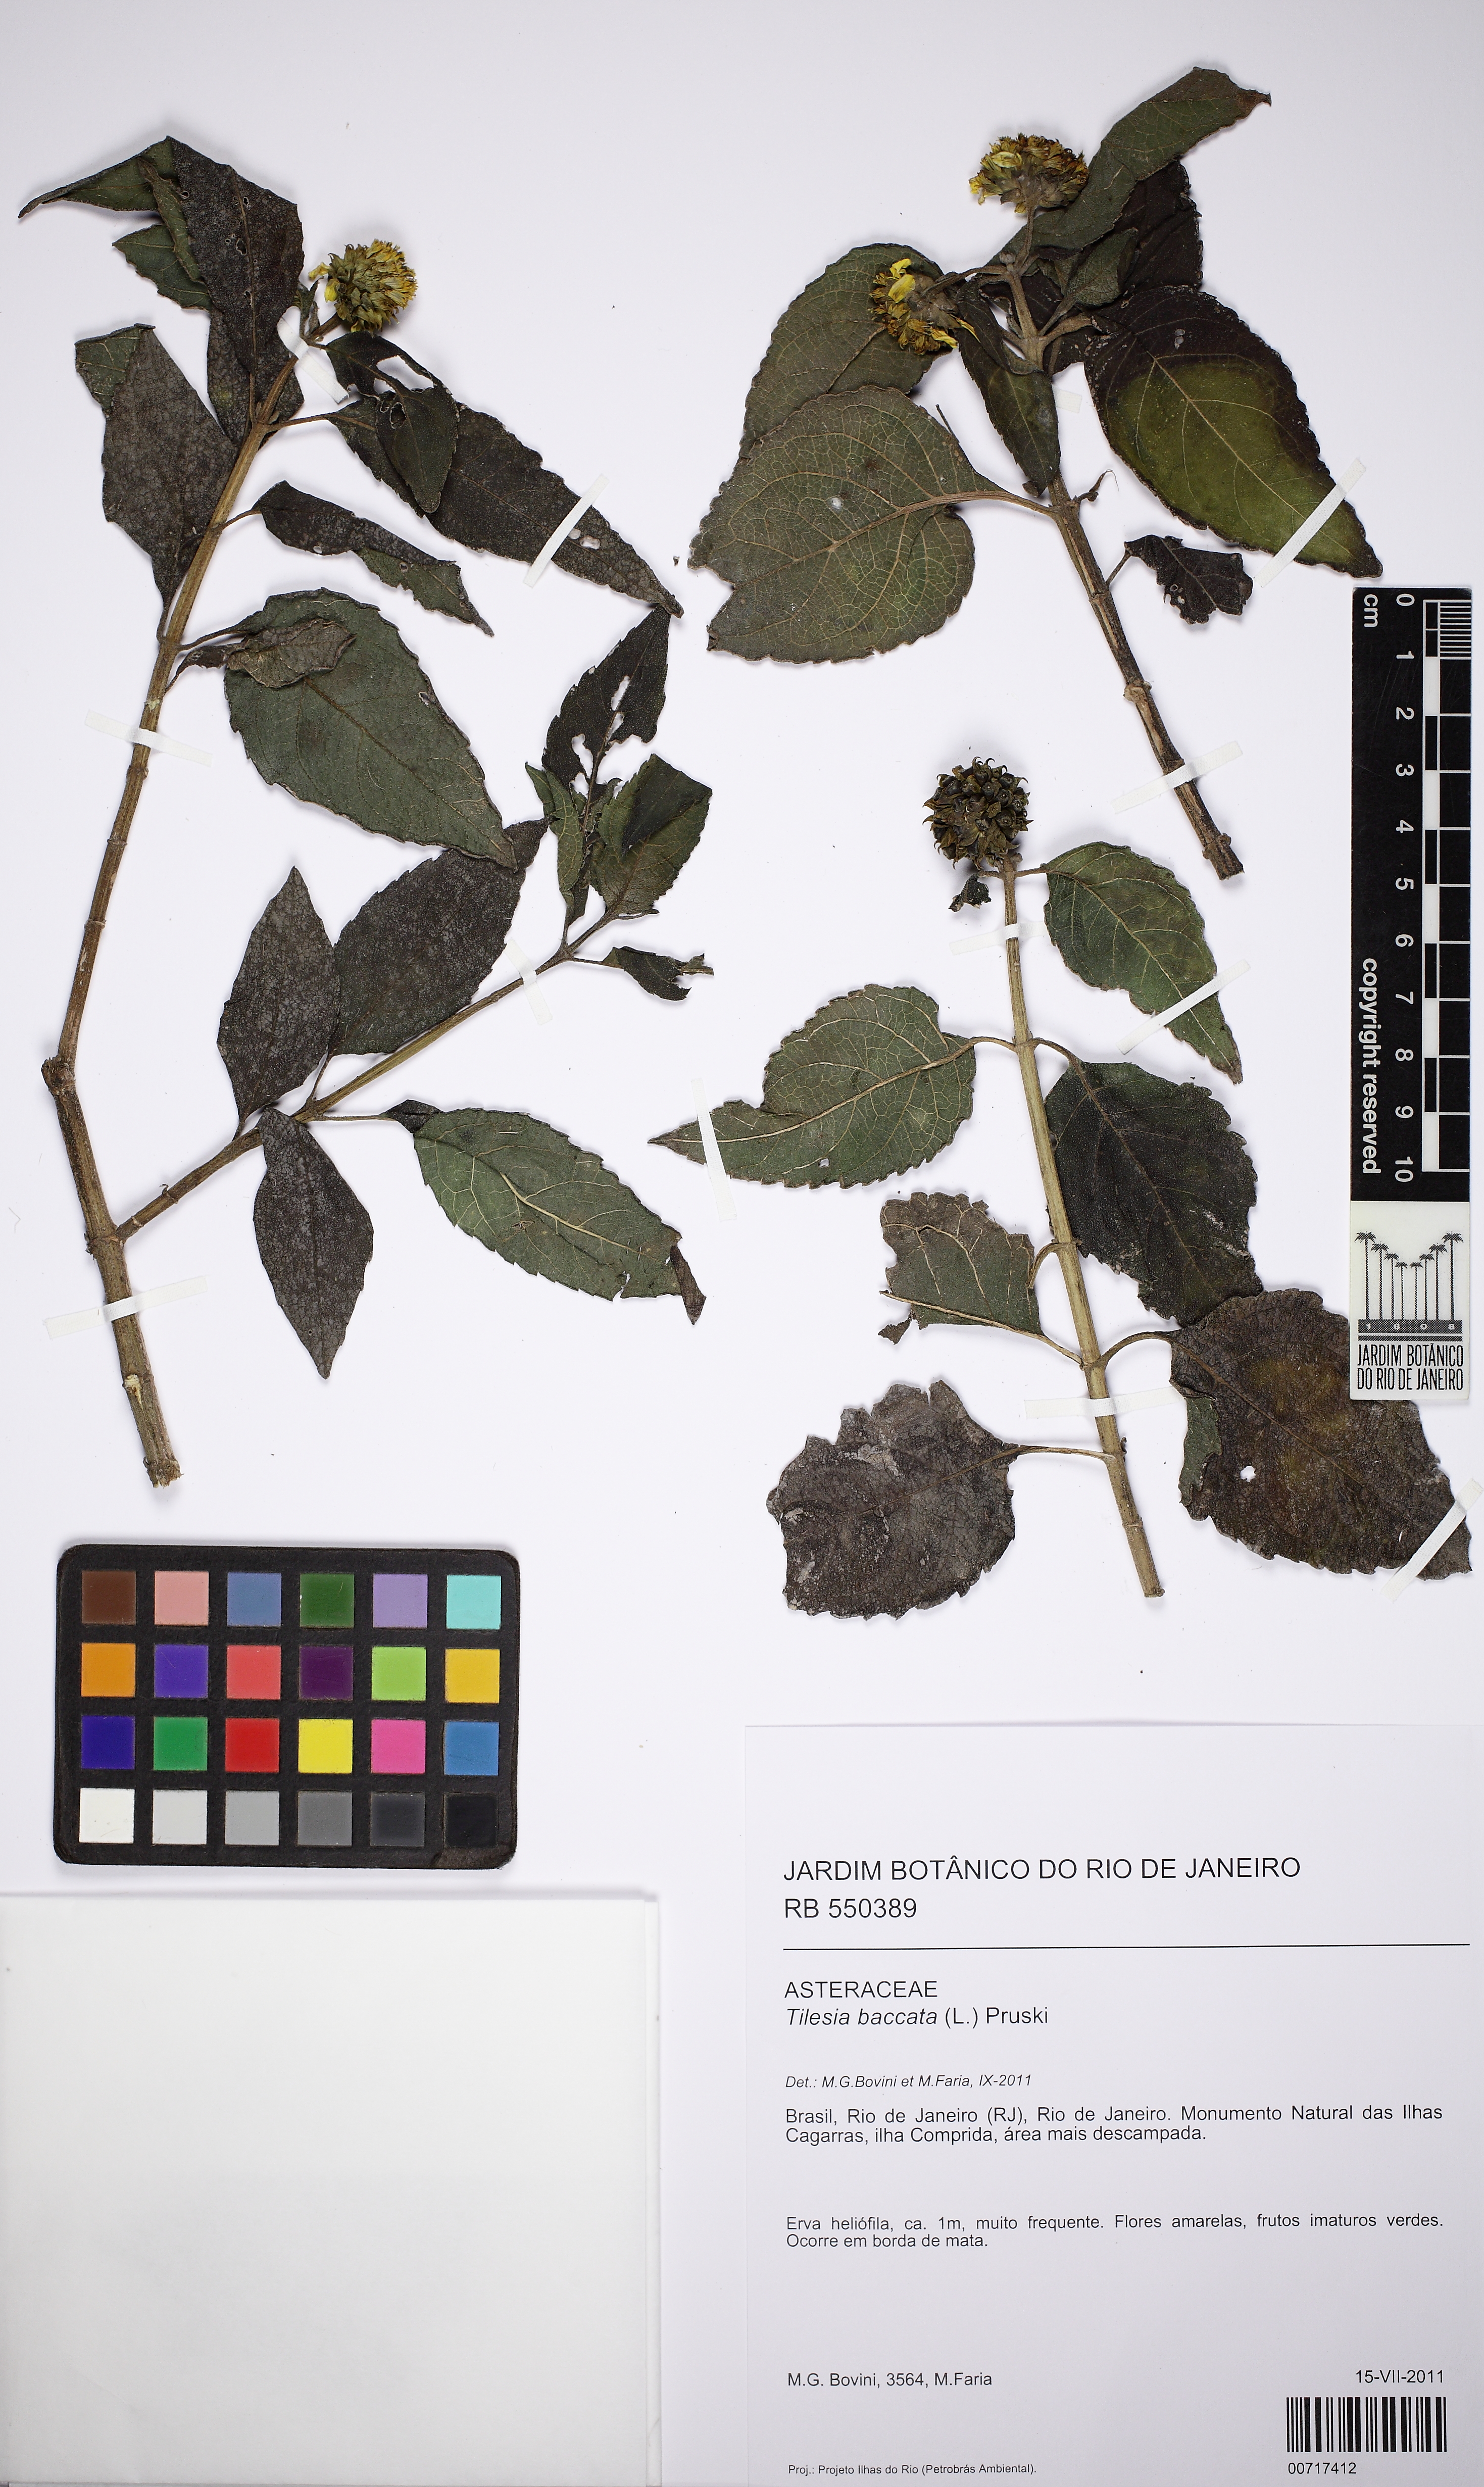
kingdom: Plantae
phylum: Tracheophyta
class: Magnoliopsida
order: Asterales
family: Asteraceae
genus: Tilesia
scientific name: Tilesia baccata
